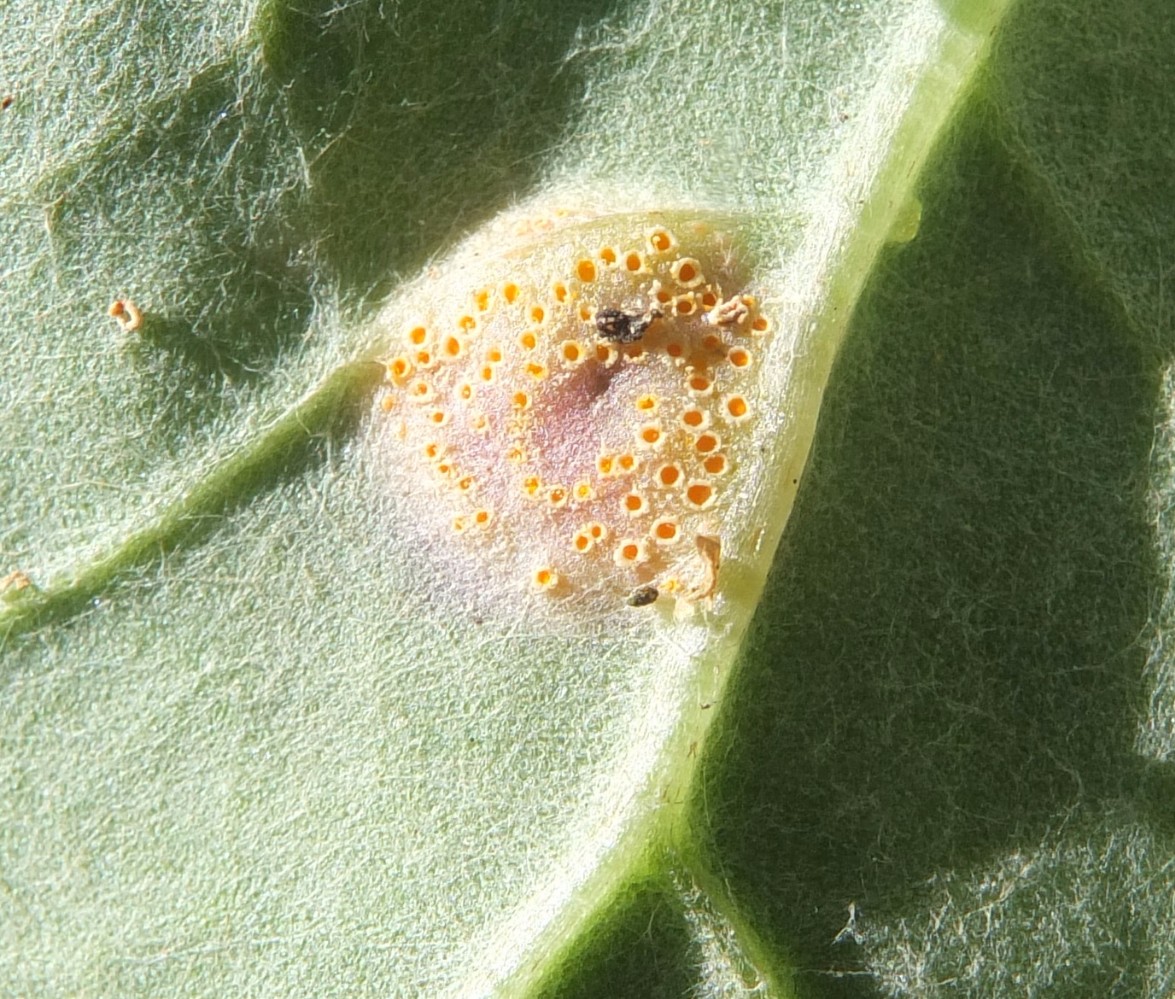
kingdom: Fungi
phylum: Basidiomycota
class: Pucciniomycetes
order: Pucciniales
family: Pucciniaceae
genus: Puccinia
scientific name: Puccinia poarum
